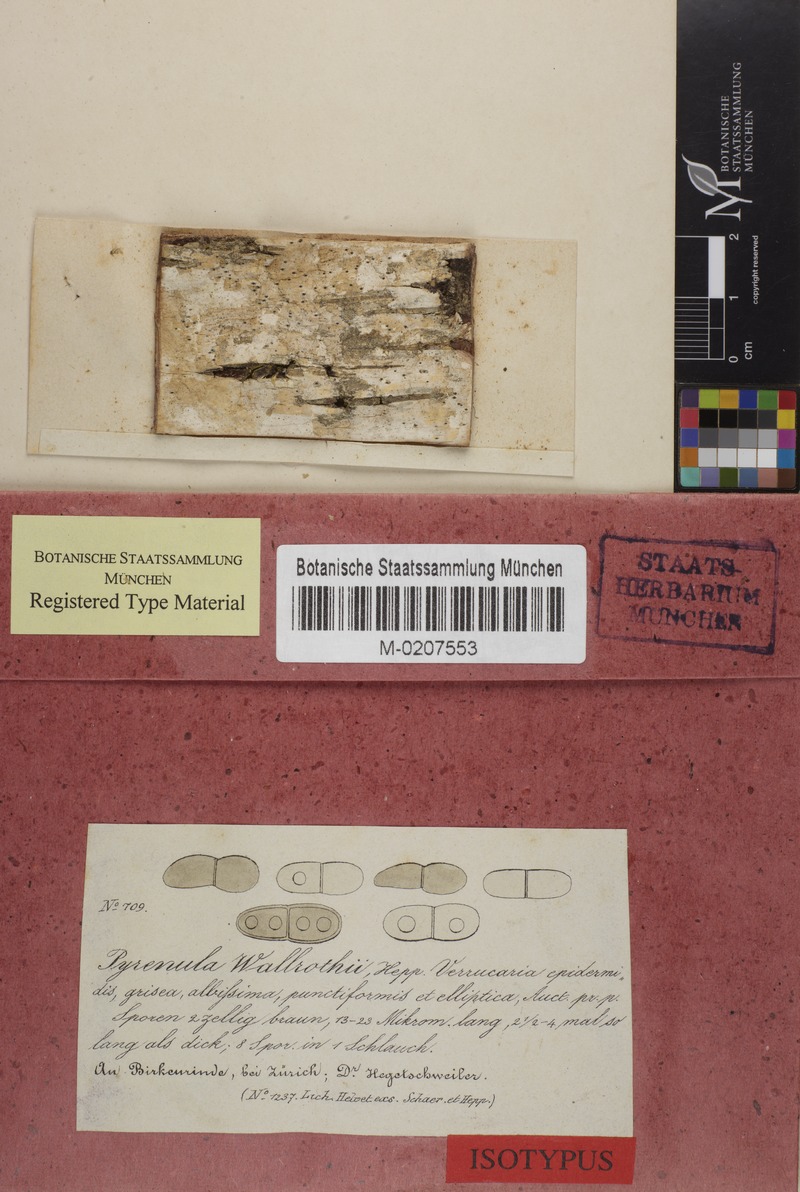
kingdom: Fungi
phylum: Ascomycota
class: Dothideomycetes
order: Trypetheliales
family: Trypetheliaceae
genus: Mycomicrothelia
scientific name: Mycomicrothelia wallrothii
